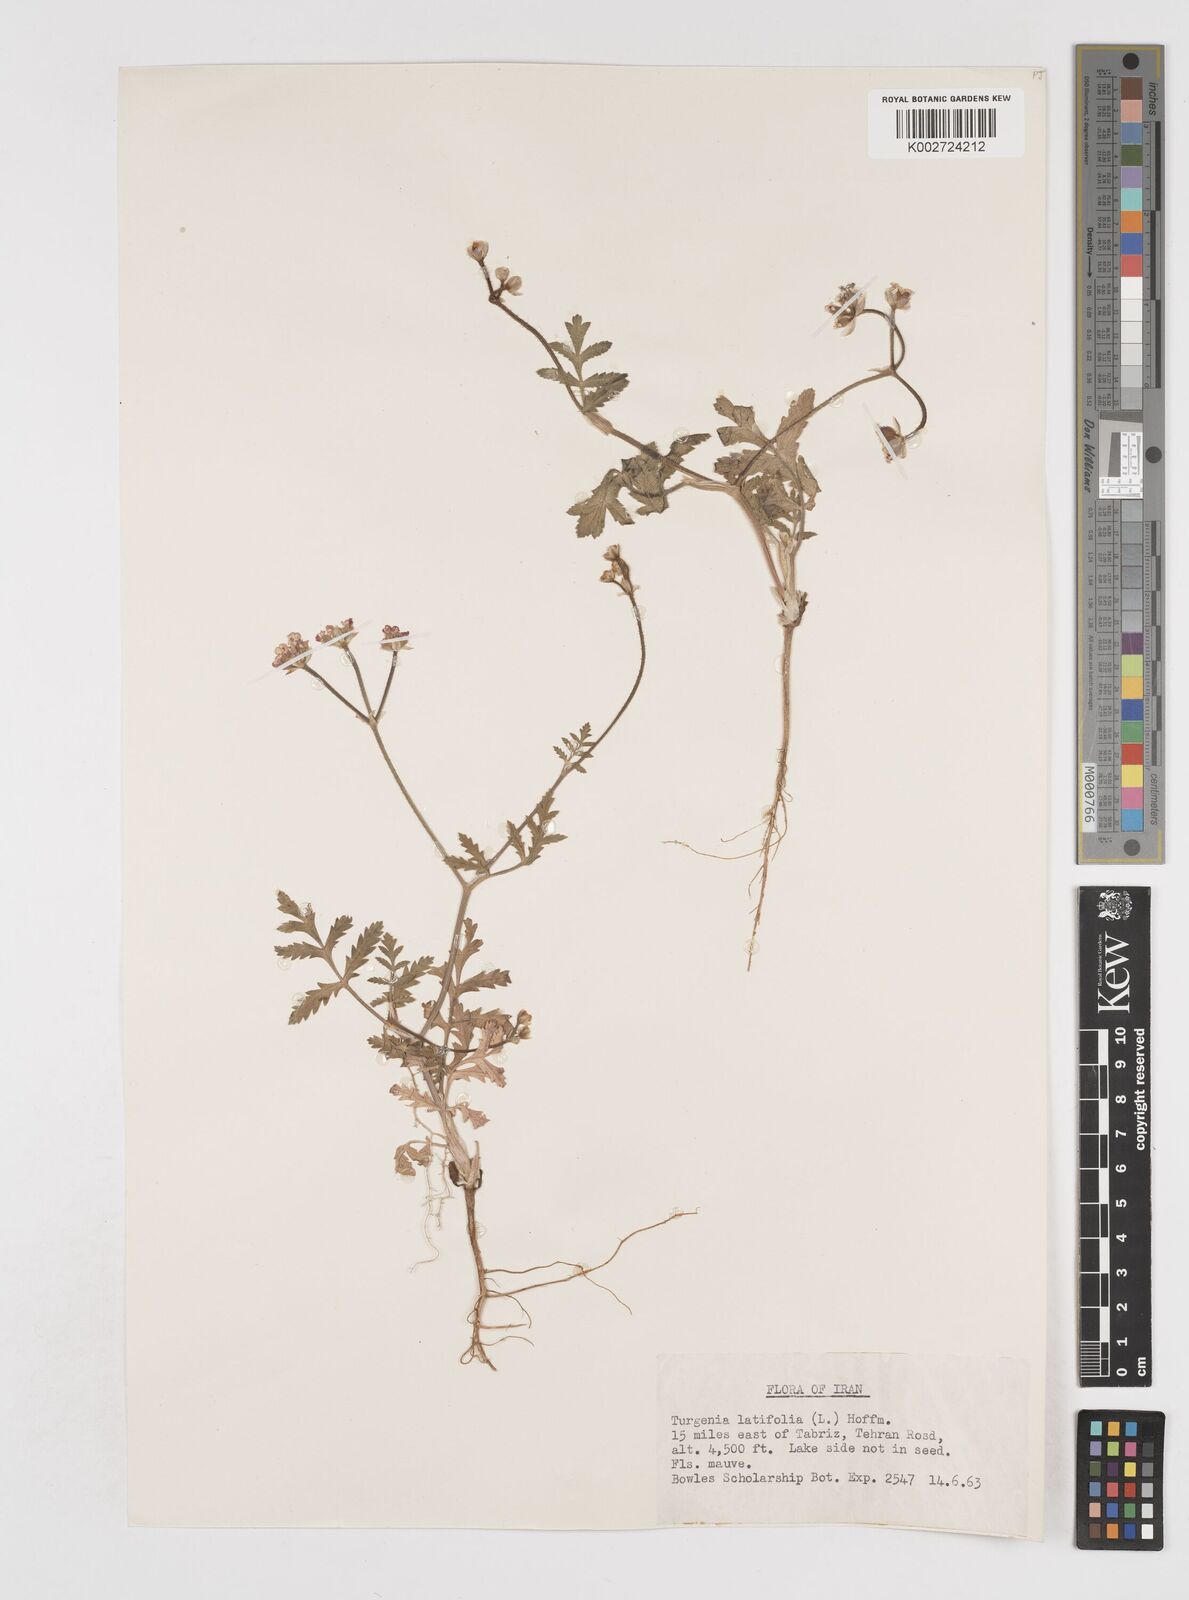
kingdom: Plantae
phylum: Tracheophyta
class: Magnoliopsida
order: Apiales
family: Apiaceae
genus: Turgenia
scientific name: Turgenia latifolia
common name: Greater bur-parsley
